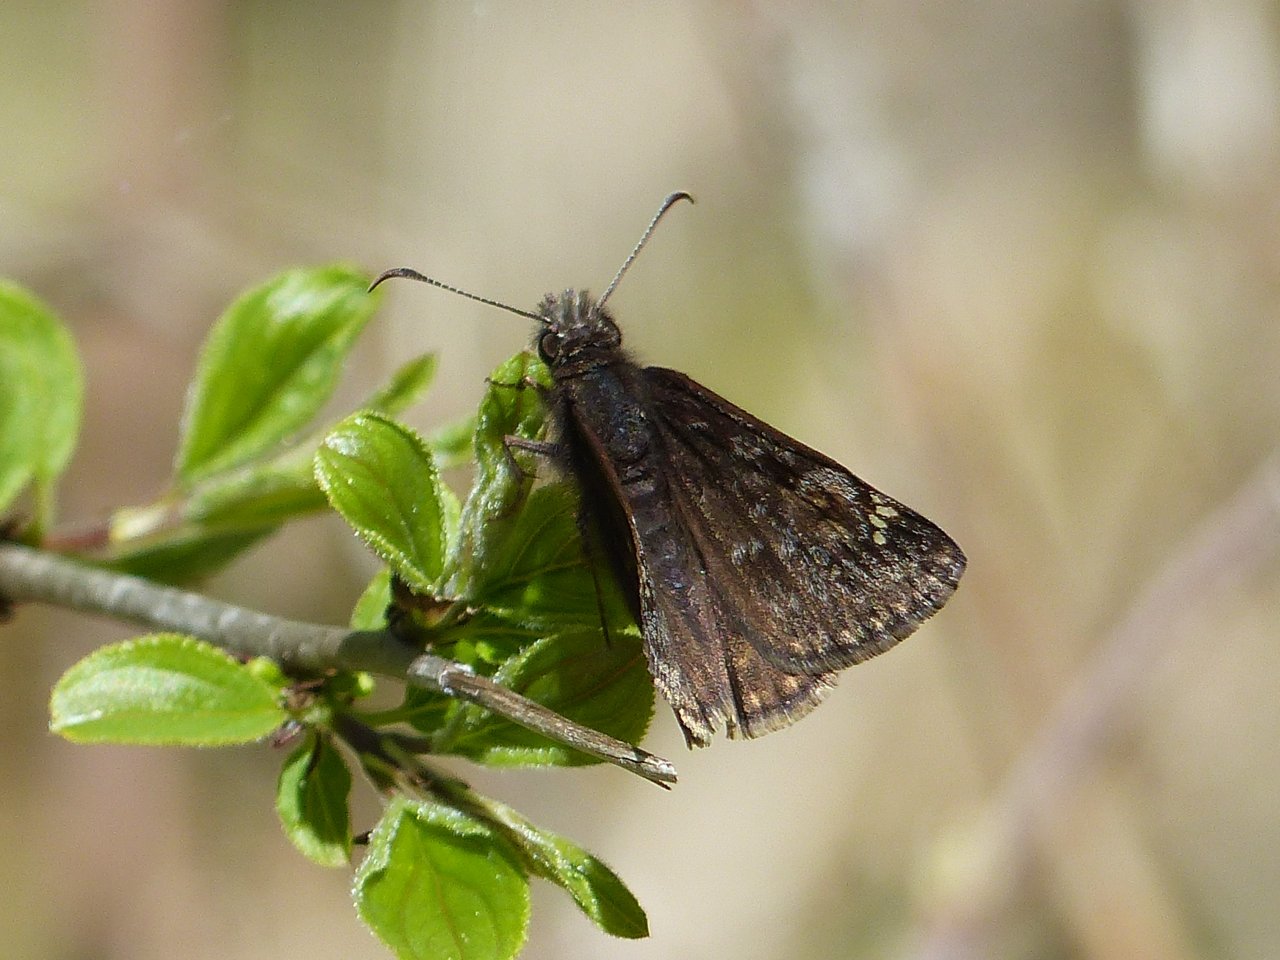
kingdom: Animalia
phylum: Arthropoda
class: Insecta
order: Lepidoptera
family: Hesperiidae
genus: Gesta
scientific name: Gesta
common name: Juvenal's Duskywing
